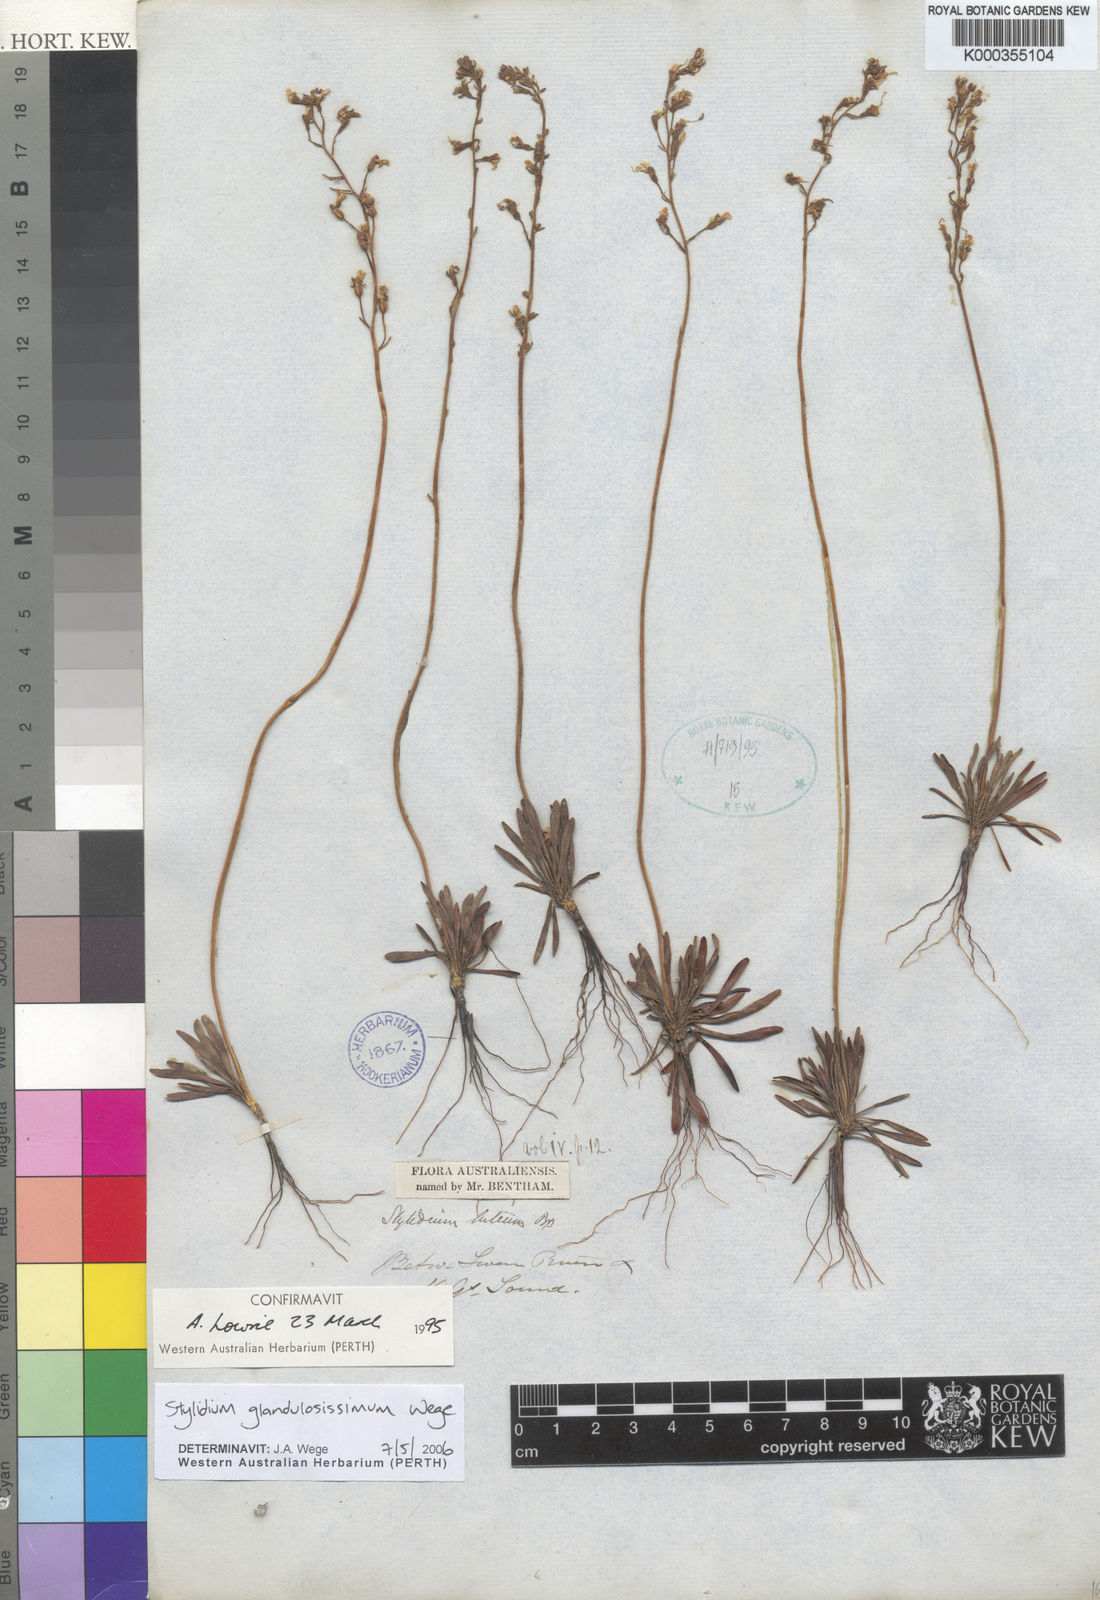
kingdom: Plantae
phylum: Tracheophyta
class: Magnoliopsida
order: Asterales
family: Stylidiaceae
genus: Stylidium
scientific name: Stylidium glandulosissimum
